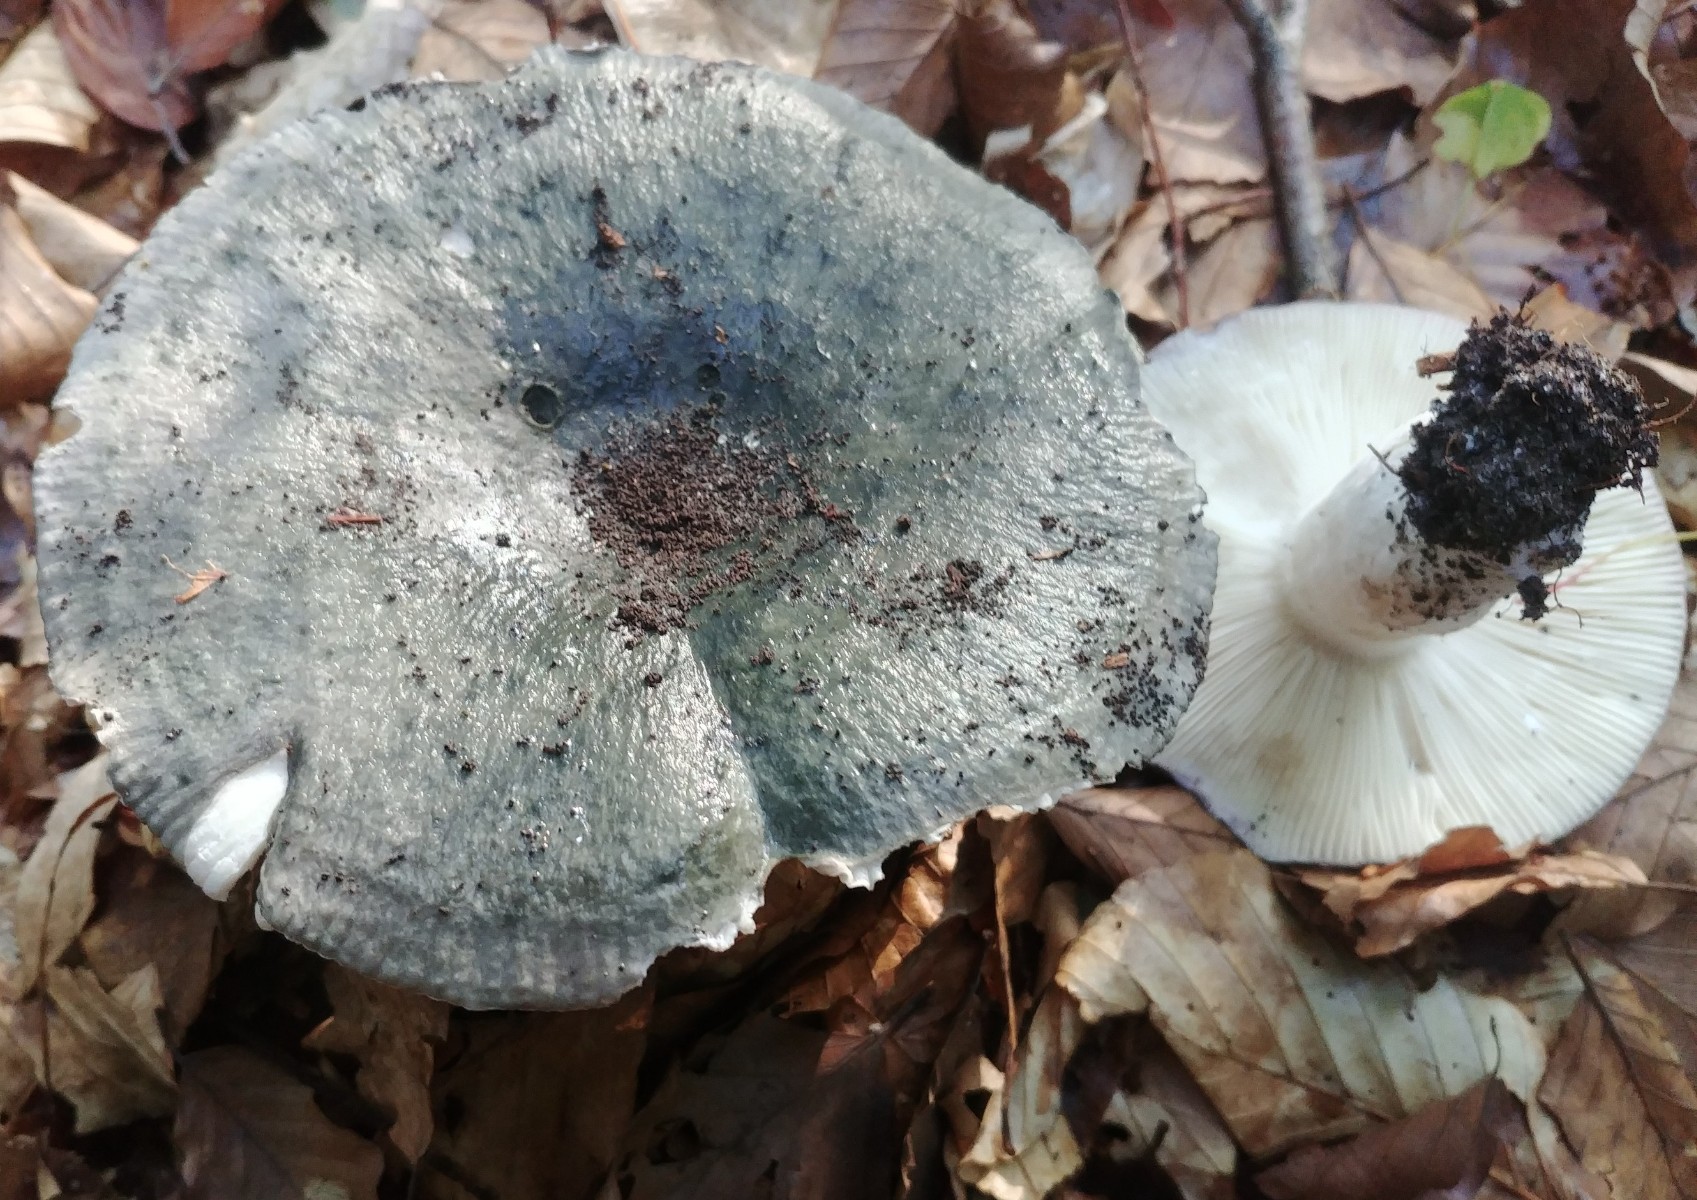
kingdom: Fungi
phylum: Basidiomycota
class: Agaricomycetes
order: Russulales
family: Russulaceae
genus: Russula
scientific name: Russula
